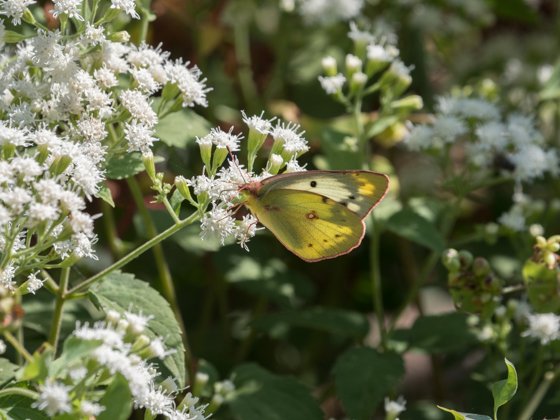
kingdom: Animalia
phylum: Arthropoda
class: Insecta
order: Lepidoptera
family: Pieridae
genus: Colias
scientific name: Colias philodice
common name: Clouded Sulphur
